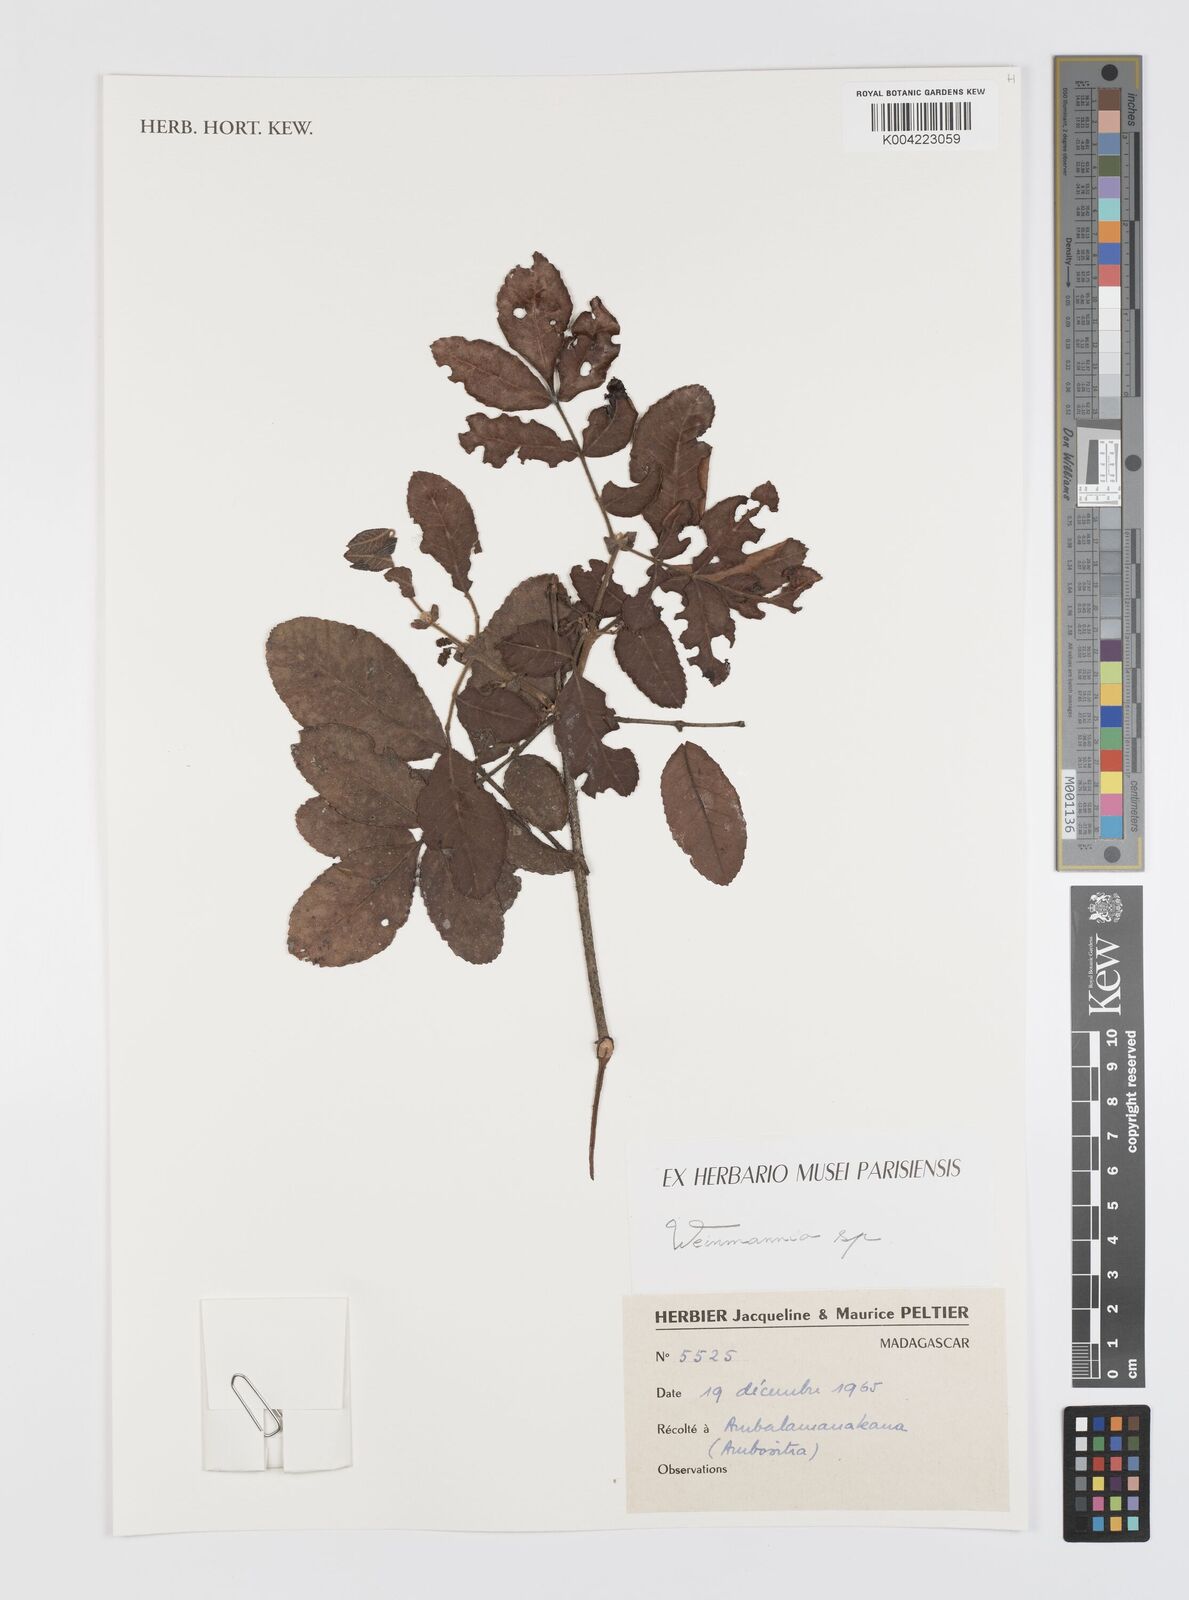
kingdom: Plantae
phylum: Tracheophyta
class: Magnoliopsida
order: Oxalidales
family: Cunoniaceae
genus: Weinmannia
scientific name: Weinmannia
